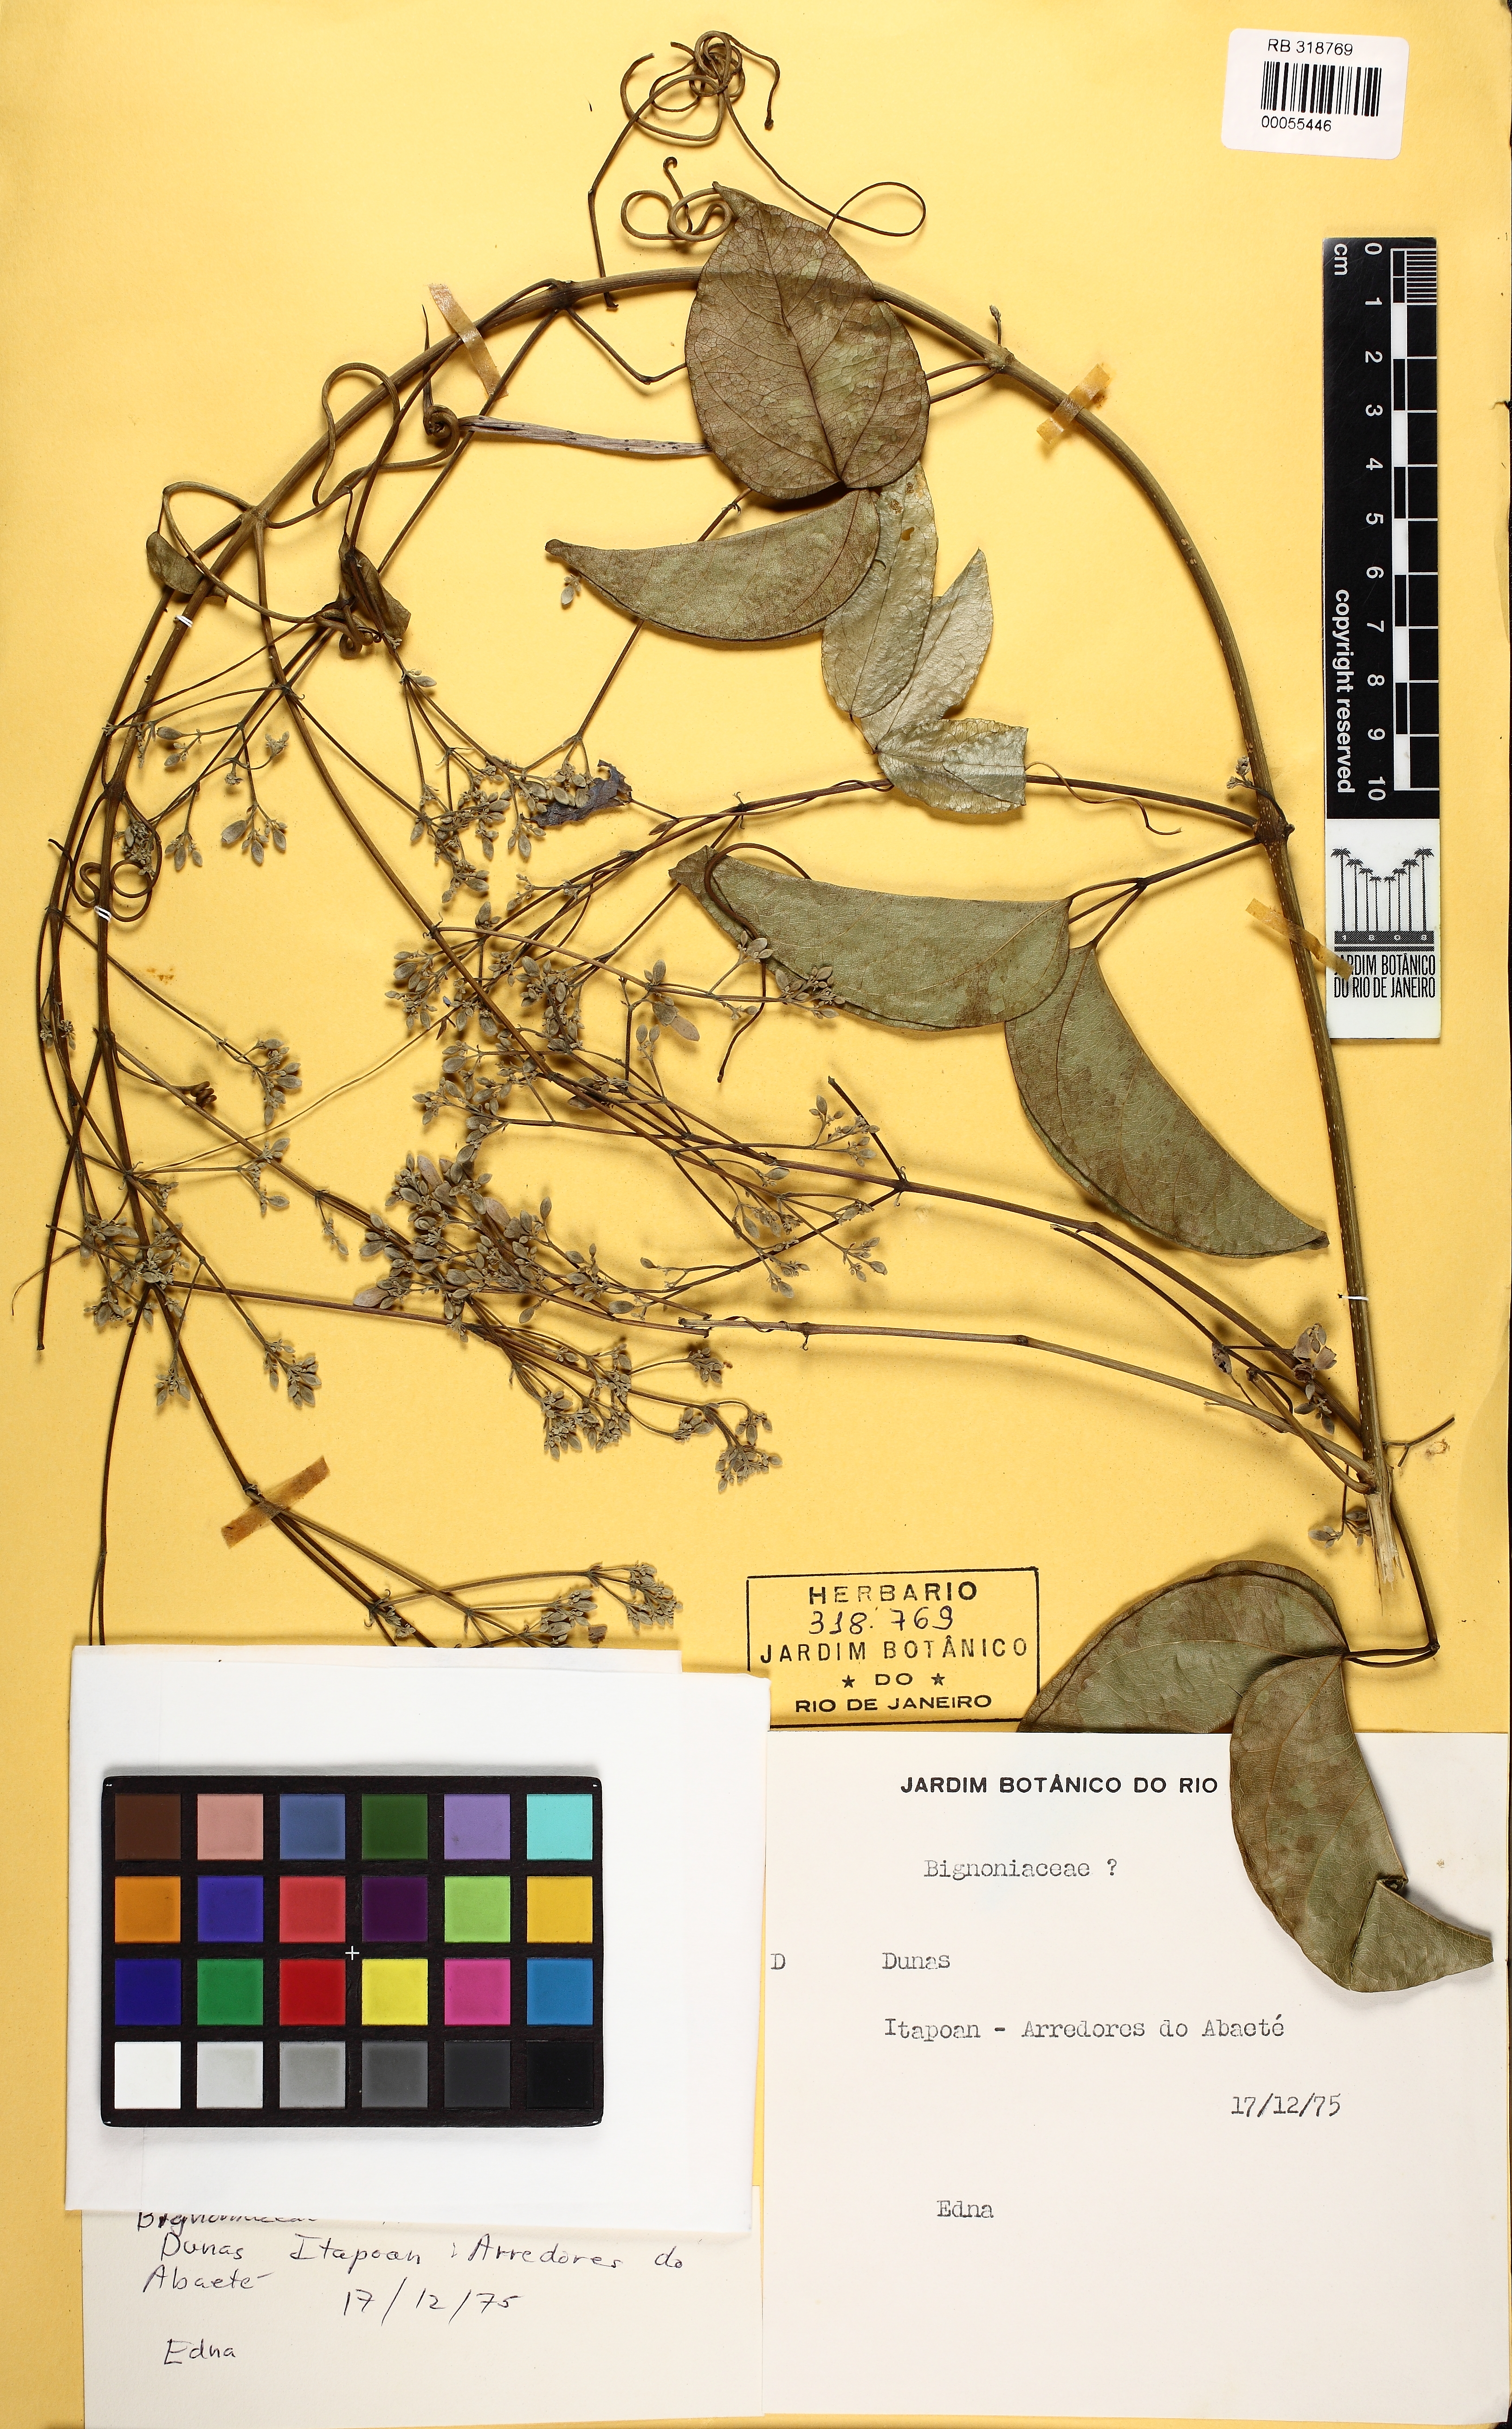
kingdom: Plantae
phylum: Tracheophyta
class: Magnoliopsida
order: Lamiales
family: Bignoniaceae
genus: Fridericia
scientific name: Fridericia conjugata
